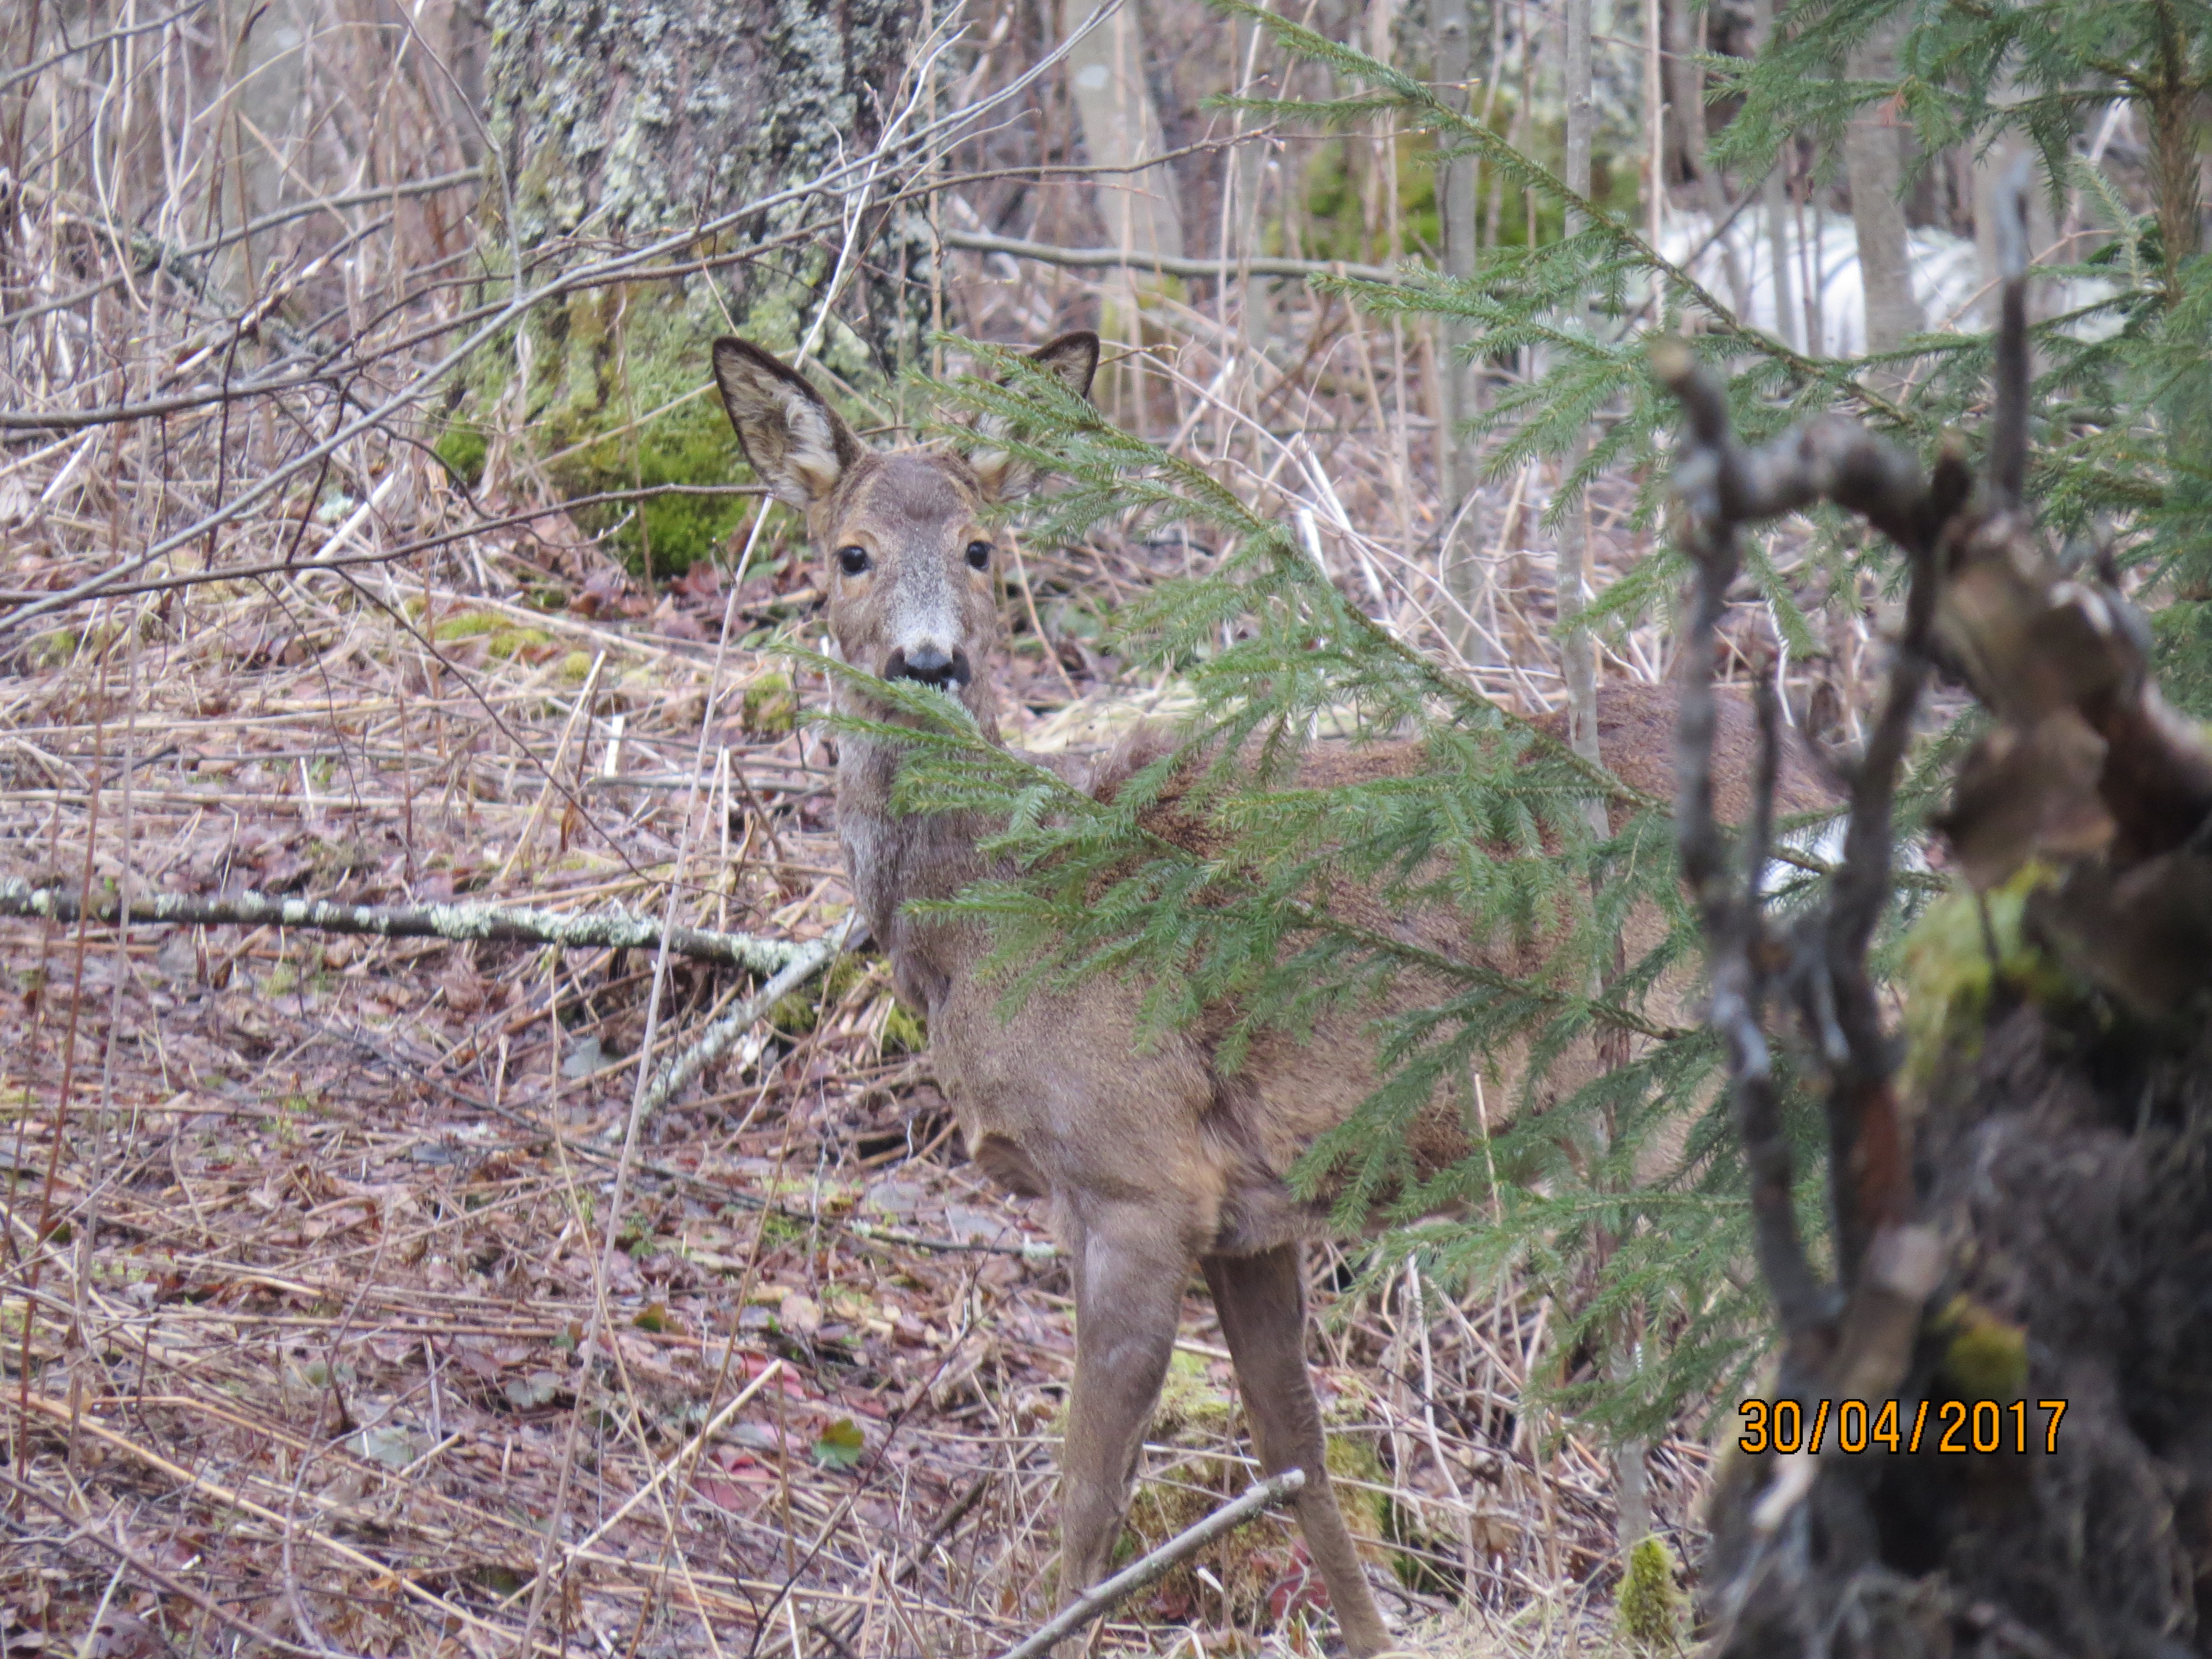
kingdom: Animalia
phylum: Chordata
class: Mammalia
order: Artiodactyla
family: Cervidae
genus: Capreolus
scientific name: Capreolus capreolus
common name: Western roe deer
